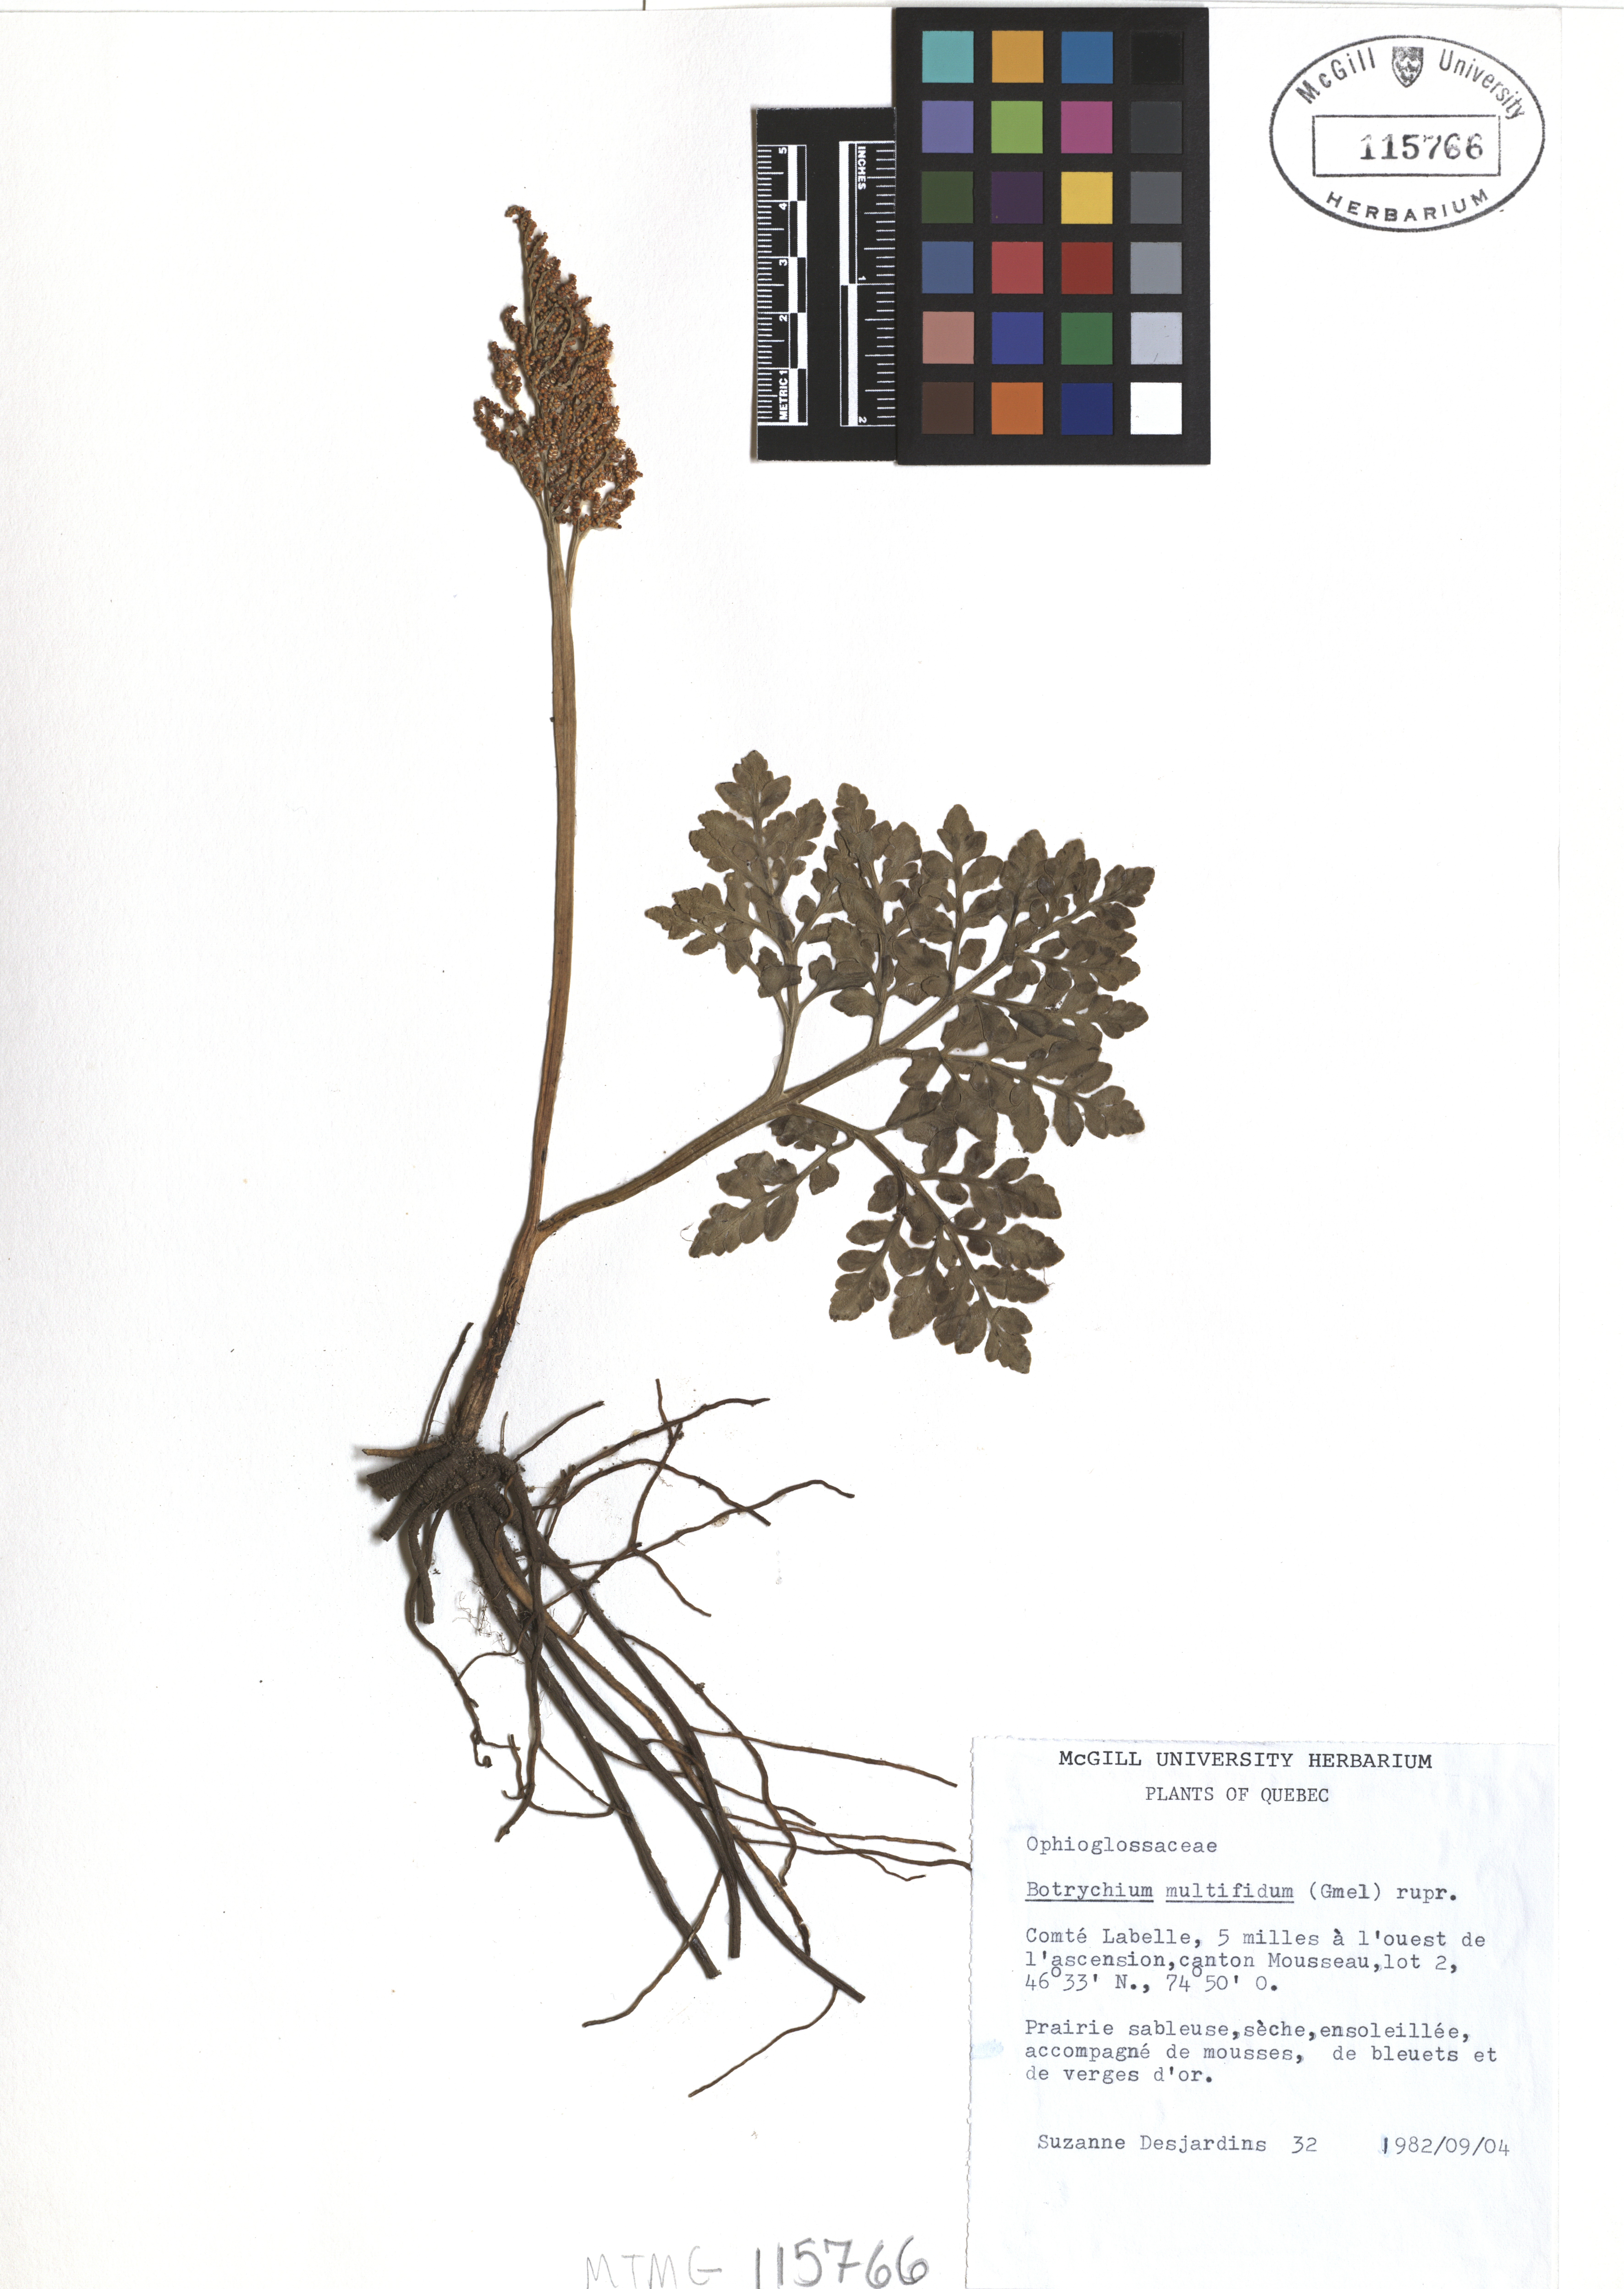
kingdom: Plantae
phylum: Tracheophyta
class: Polypodiopsida
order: Ophioglossales
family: Ophioglossaceae
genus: Sceptridium
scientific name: Sceptridium multifidum
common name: Leathery grape fern
